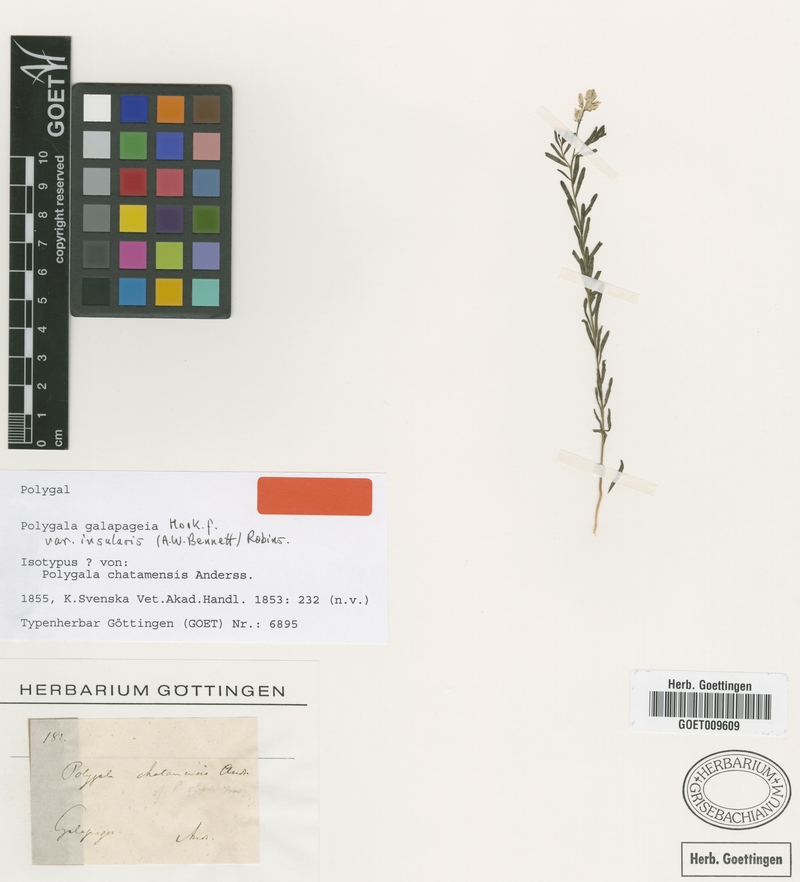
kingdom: Plantae
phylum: Tracheophyta
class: Magnoliopsida
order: Fabales
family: Polygalaceae
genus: Polygala
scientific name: Polygala galapageia
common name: Galapagos milkwort
